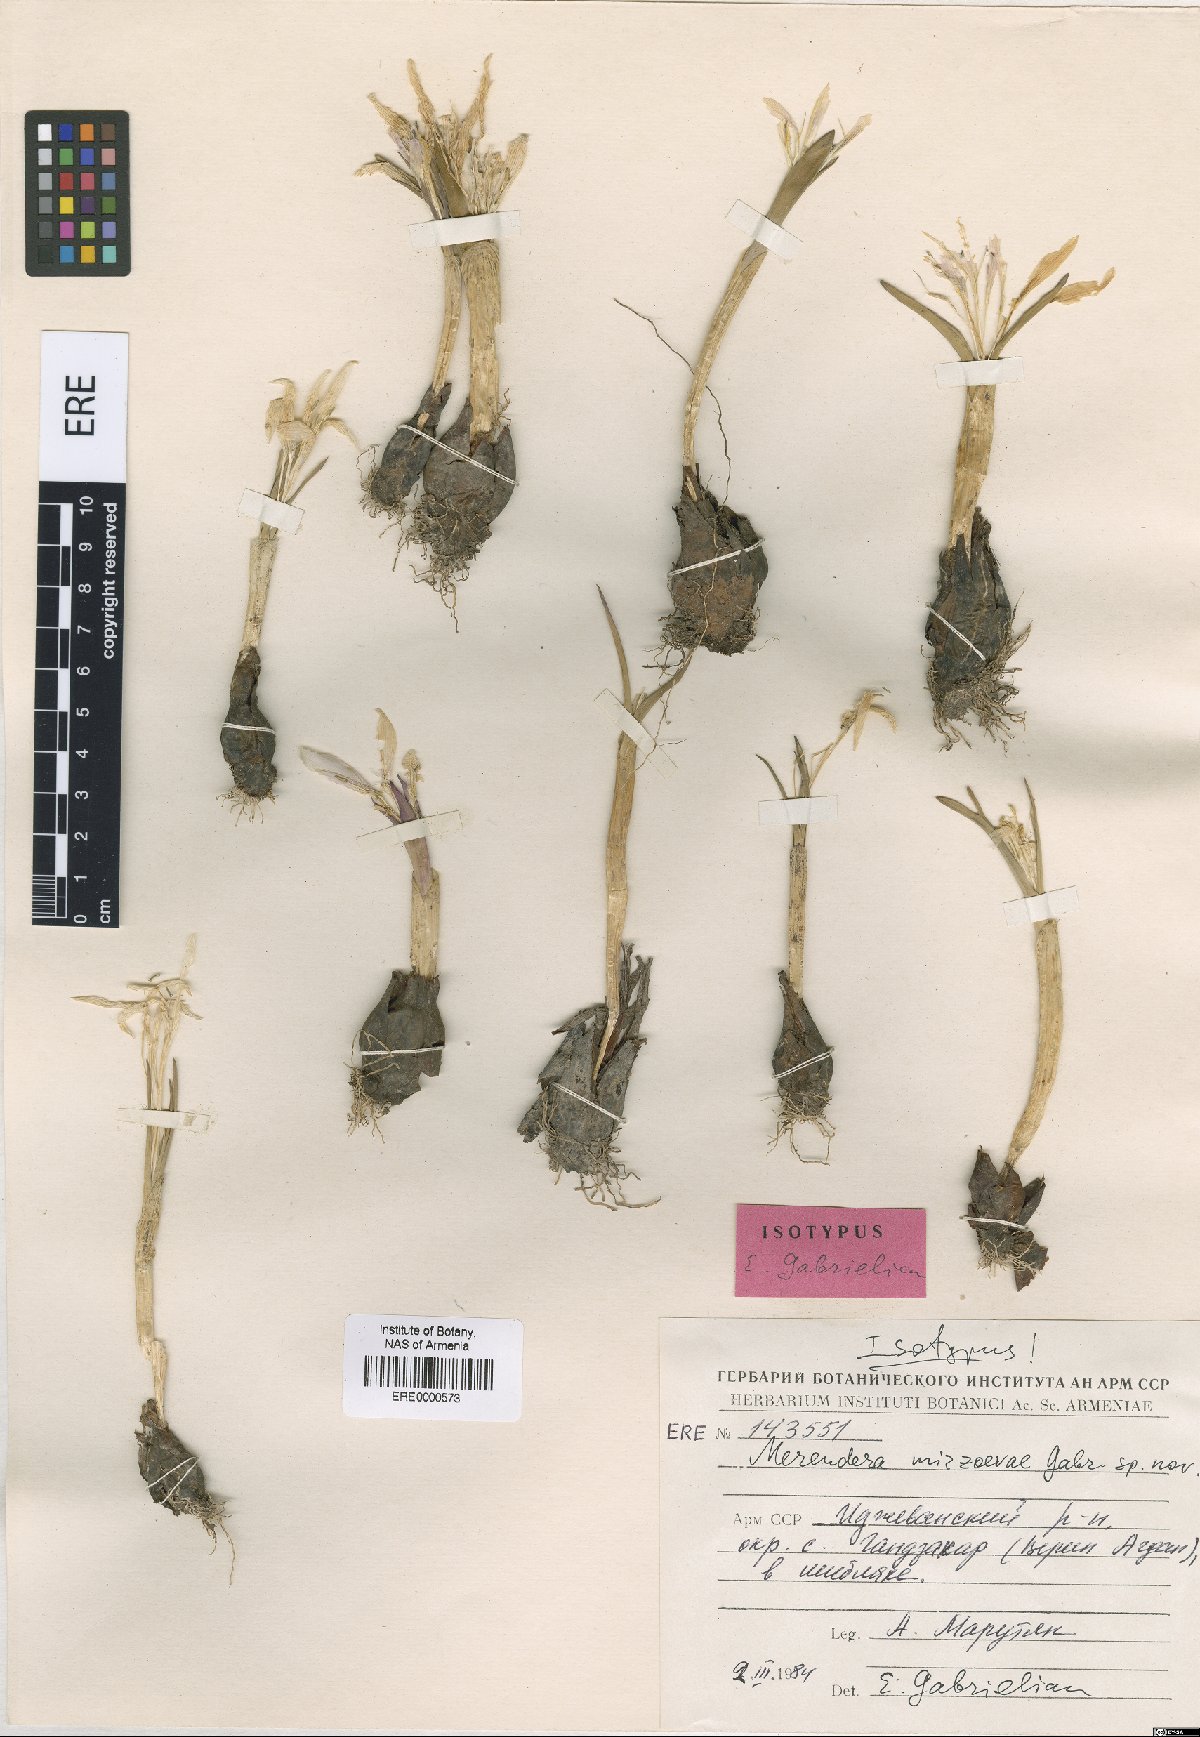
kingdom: Plantae
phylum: Tracheophyta
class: Liliopsida
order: Liliales
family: Colchicaceae
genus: Colchicum
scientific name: Colchicum trigynum
